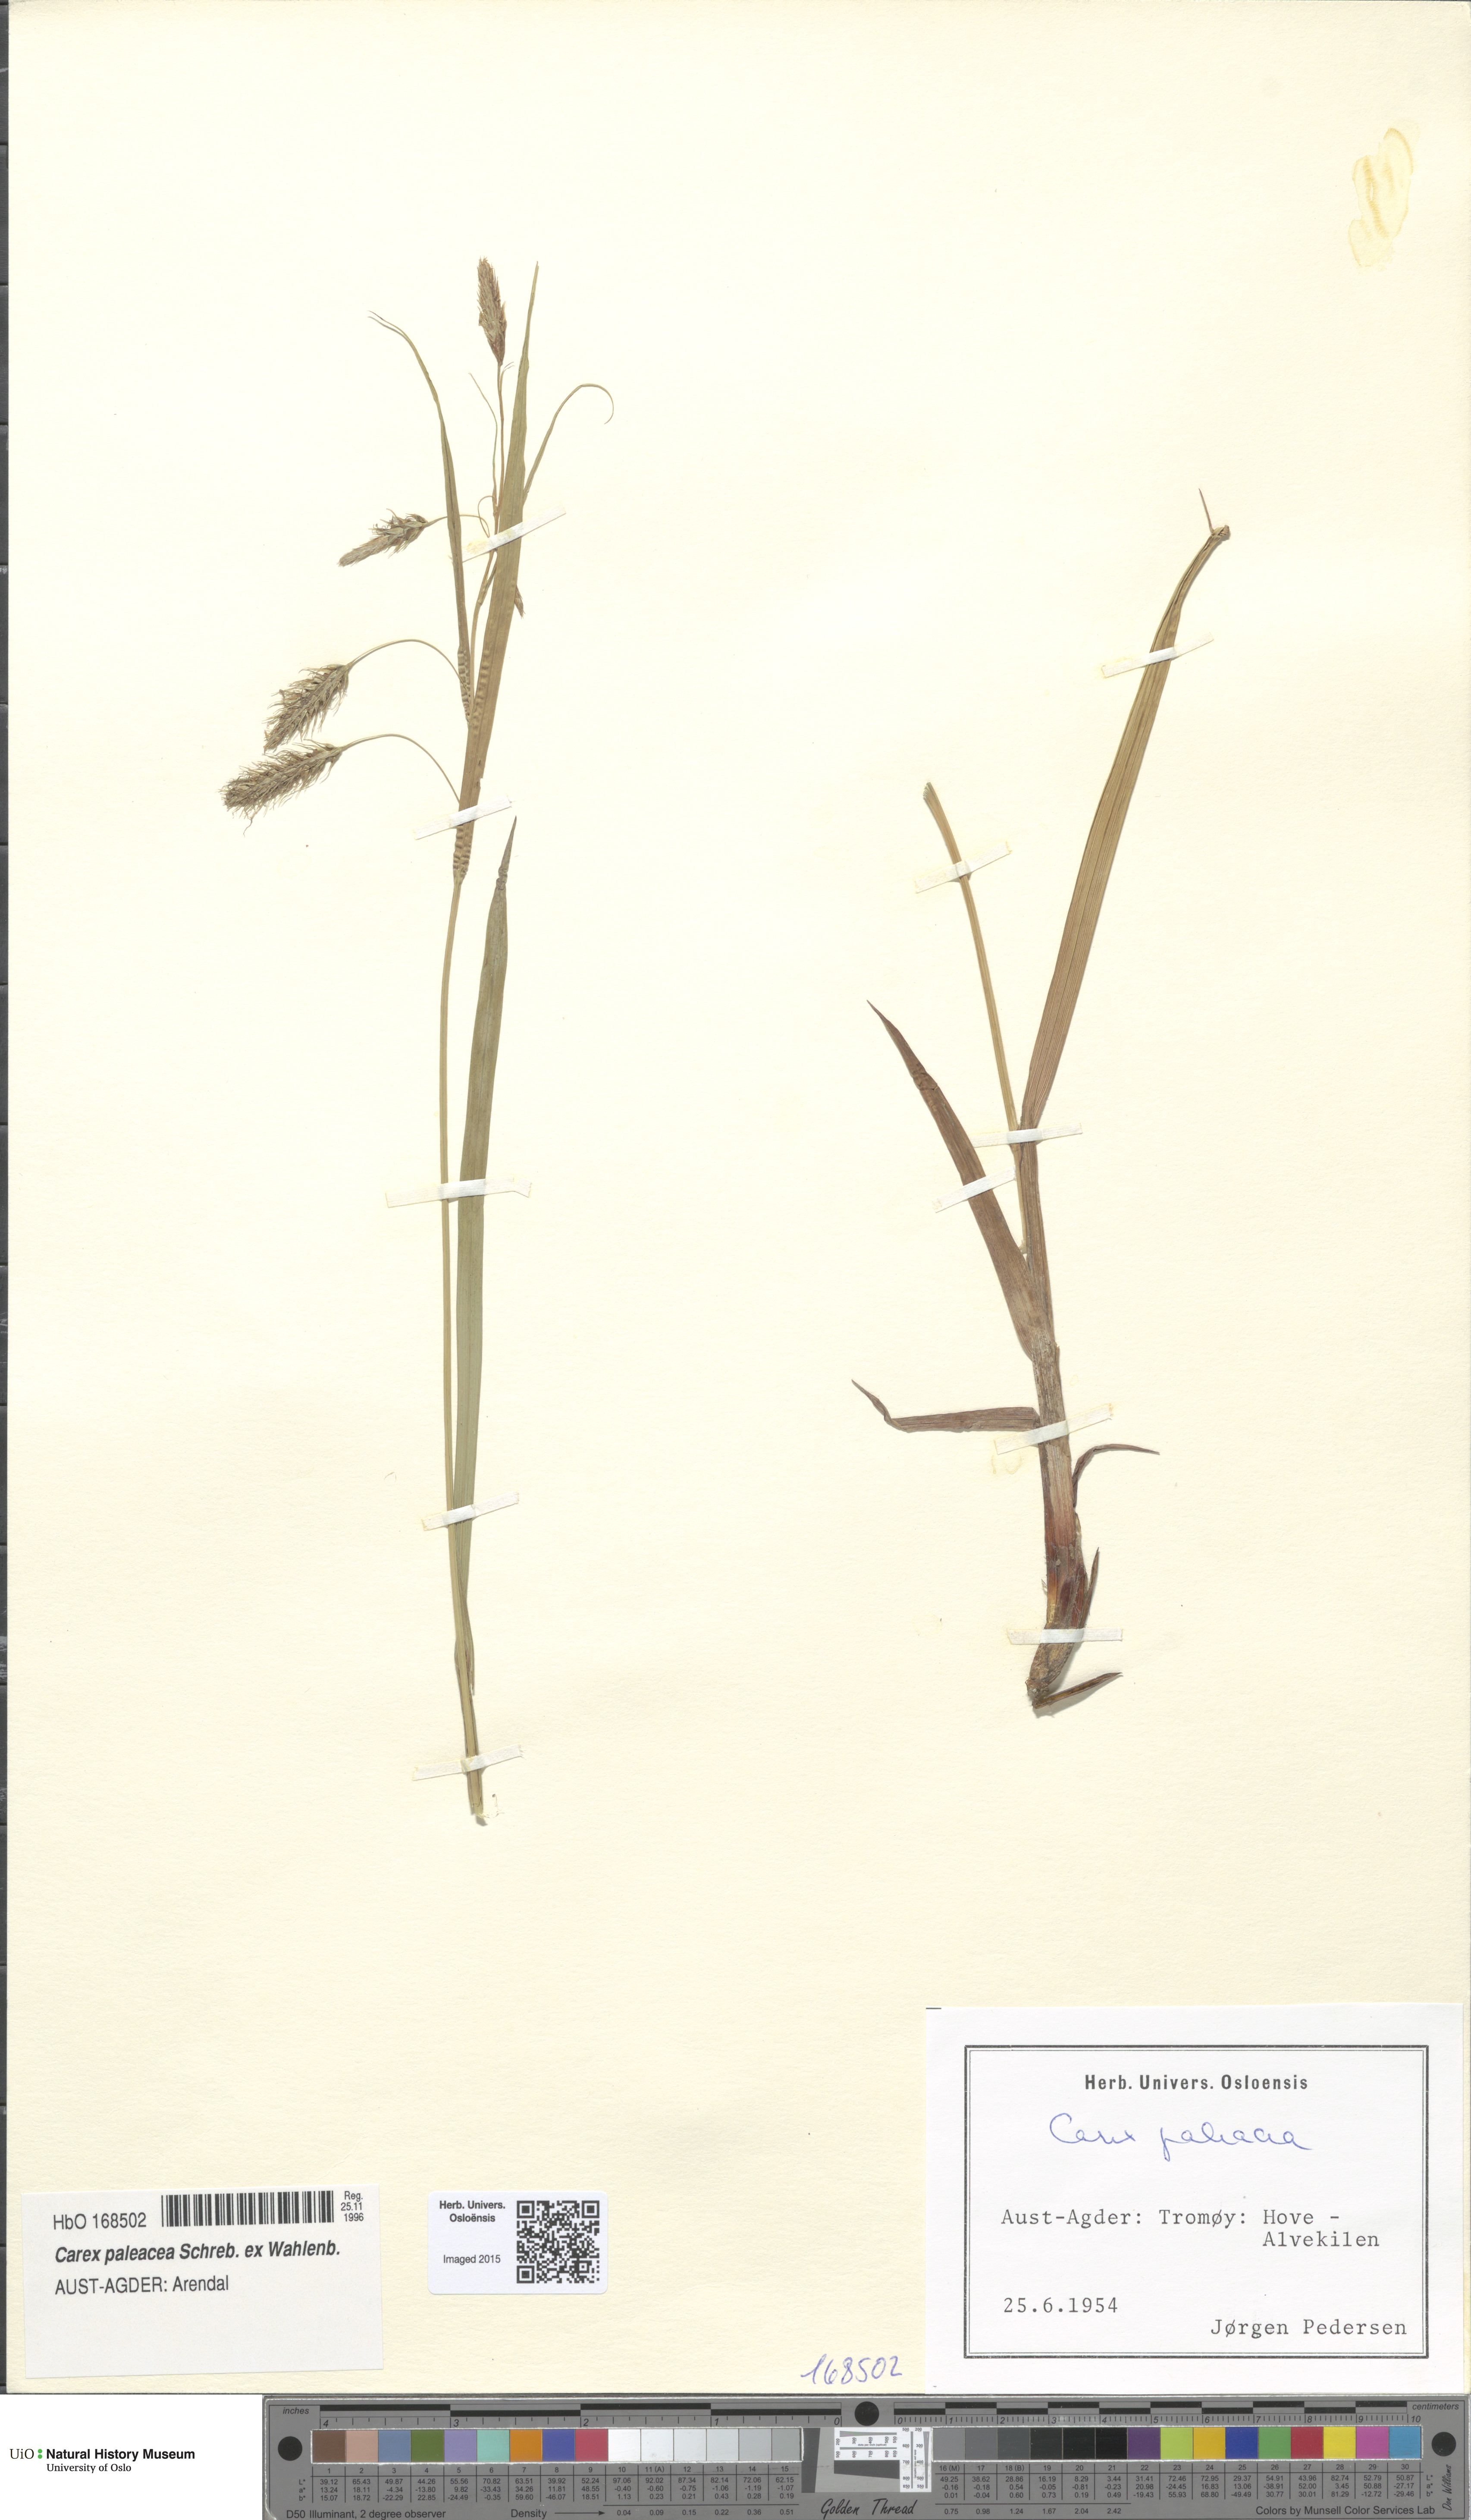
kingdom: Plantae
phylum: Tracheophyta
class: Liliopsida
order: Poales
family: Cyperaceae
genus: Carex
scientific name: Carex paleacea
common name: Chaffy sedge
